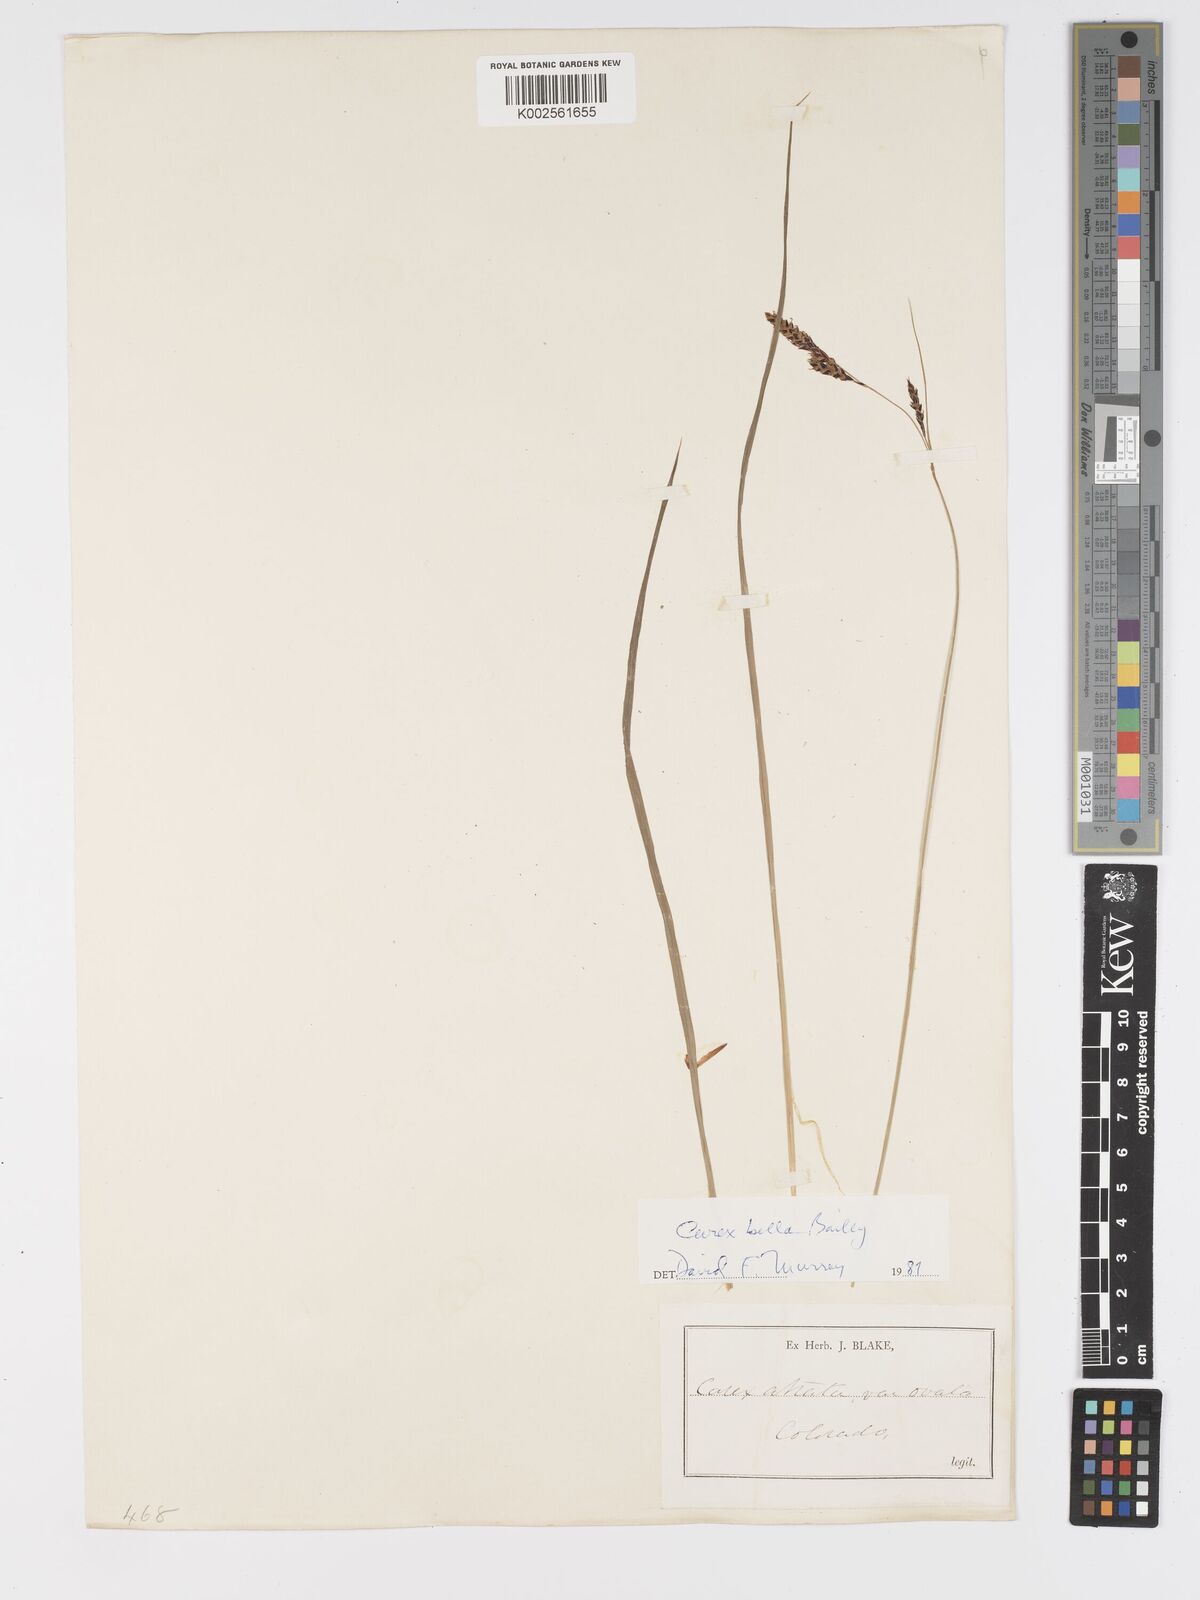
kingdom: Plantae
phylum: Tracheophyta
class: Liliopsida
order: Poales
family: Cyperaceae
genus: Carex
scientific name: Carex bella
